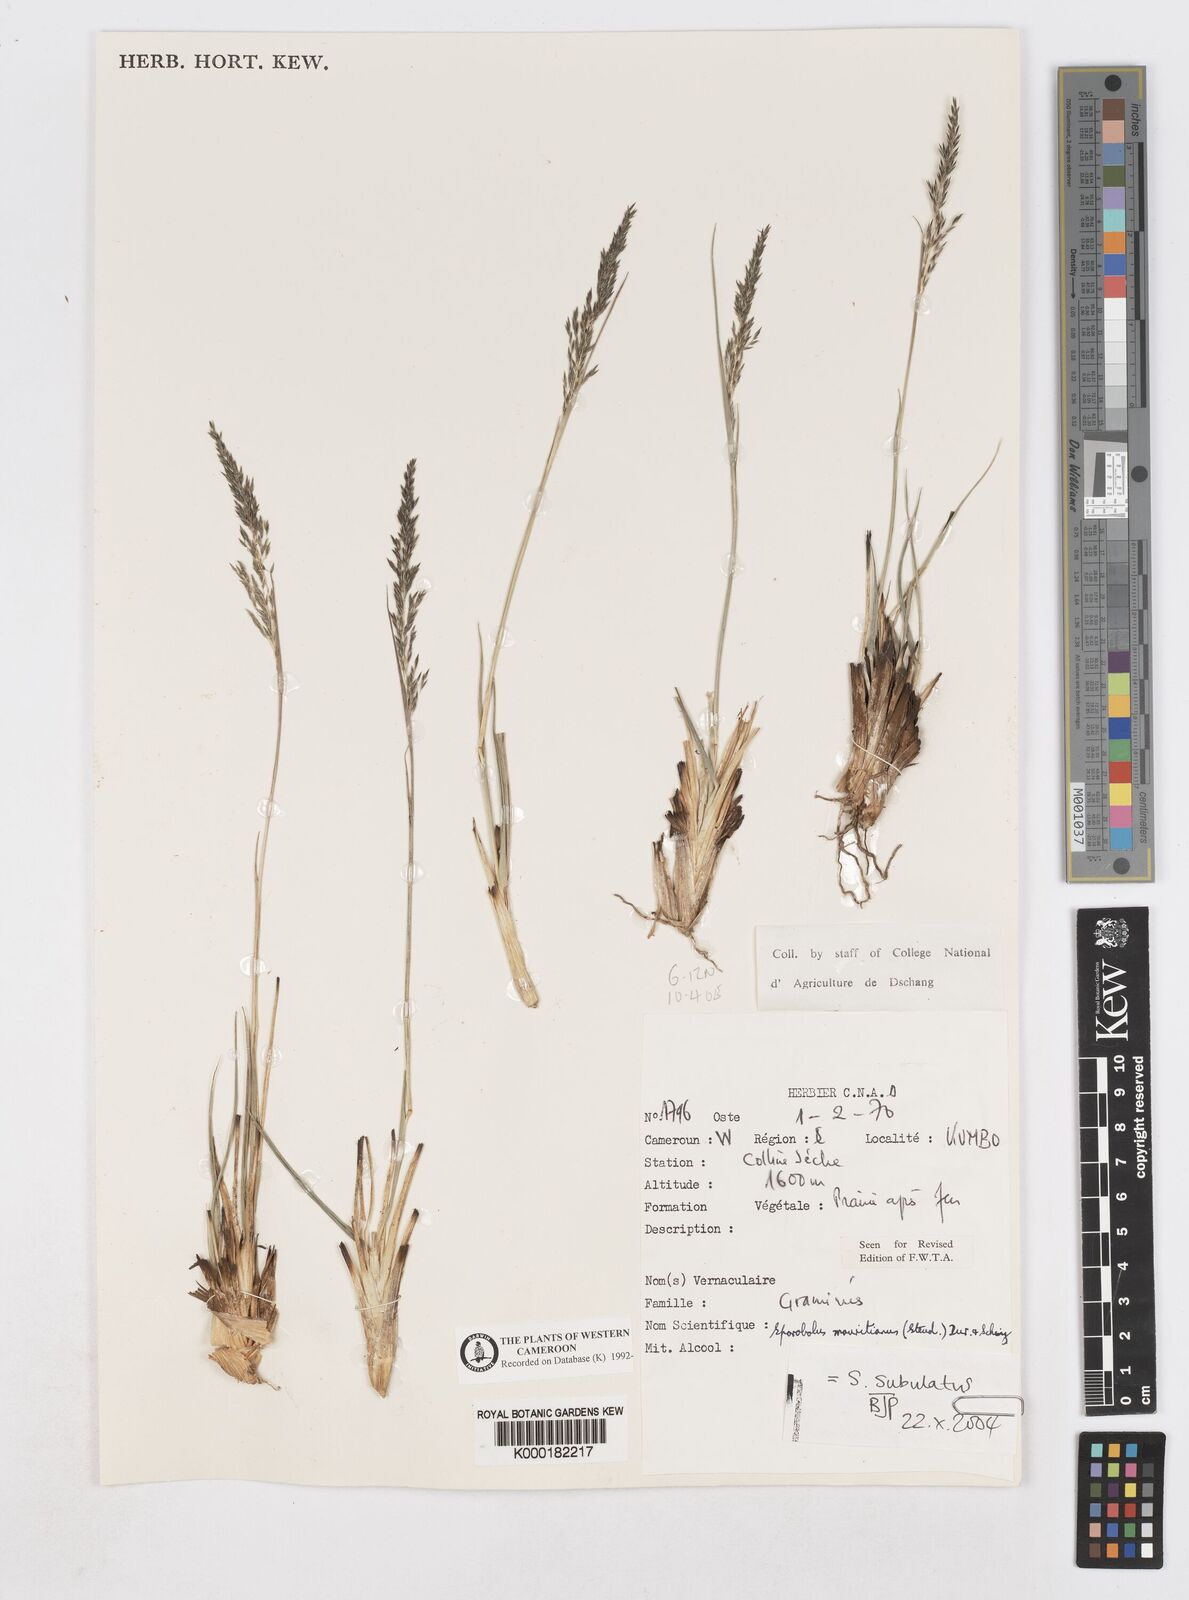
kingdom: Plantae
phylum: Tracheophyta
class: Liliopsida
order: Poales
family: Poaceae
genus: Sporobolus
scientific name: Sporobolus
